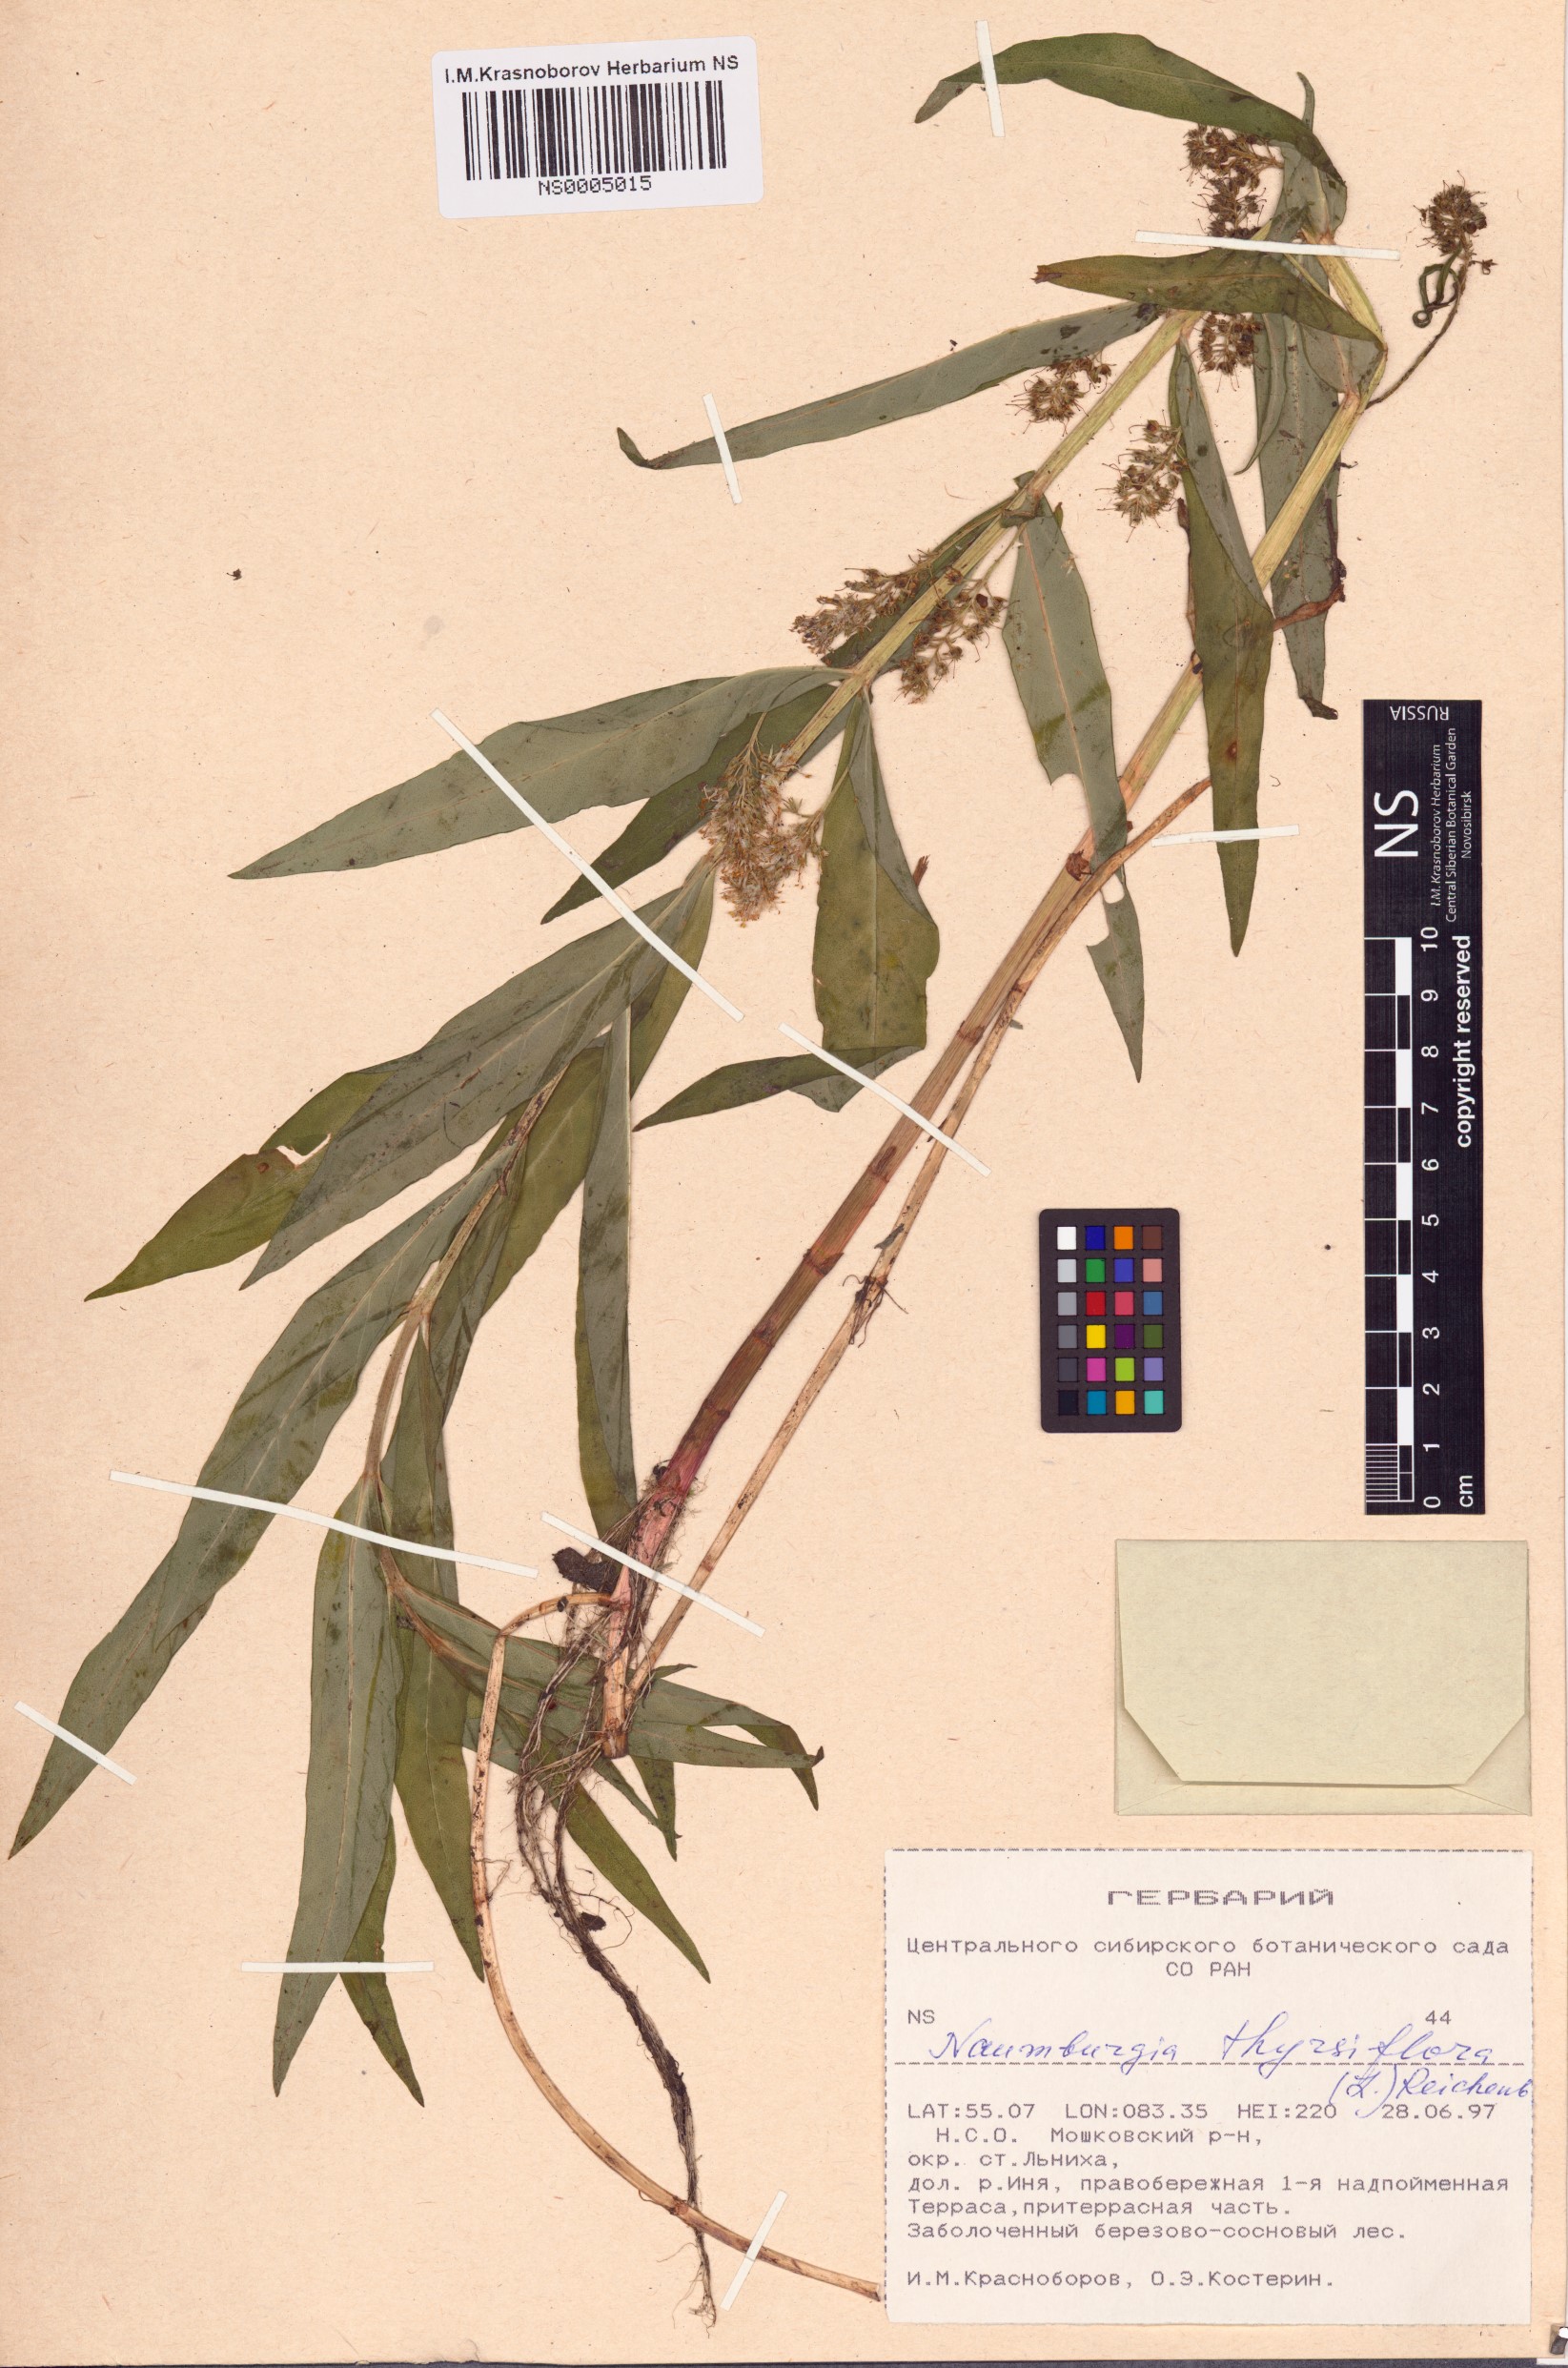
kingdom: Plantae
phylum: Tracheophyta
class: Magnoliopsida
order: Ericales
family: Primulaceae
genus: Lysimachia
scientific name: Lysimachia thyrsiflora
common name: Tufted loosestrife
